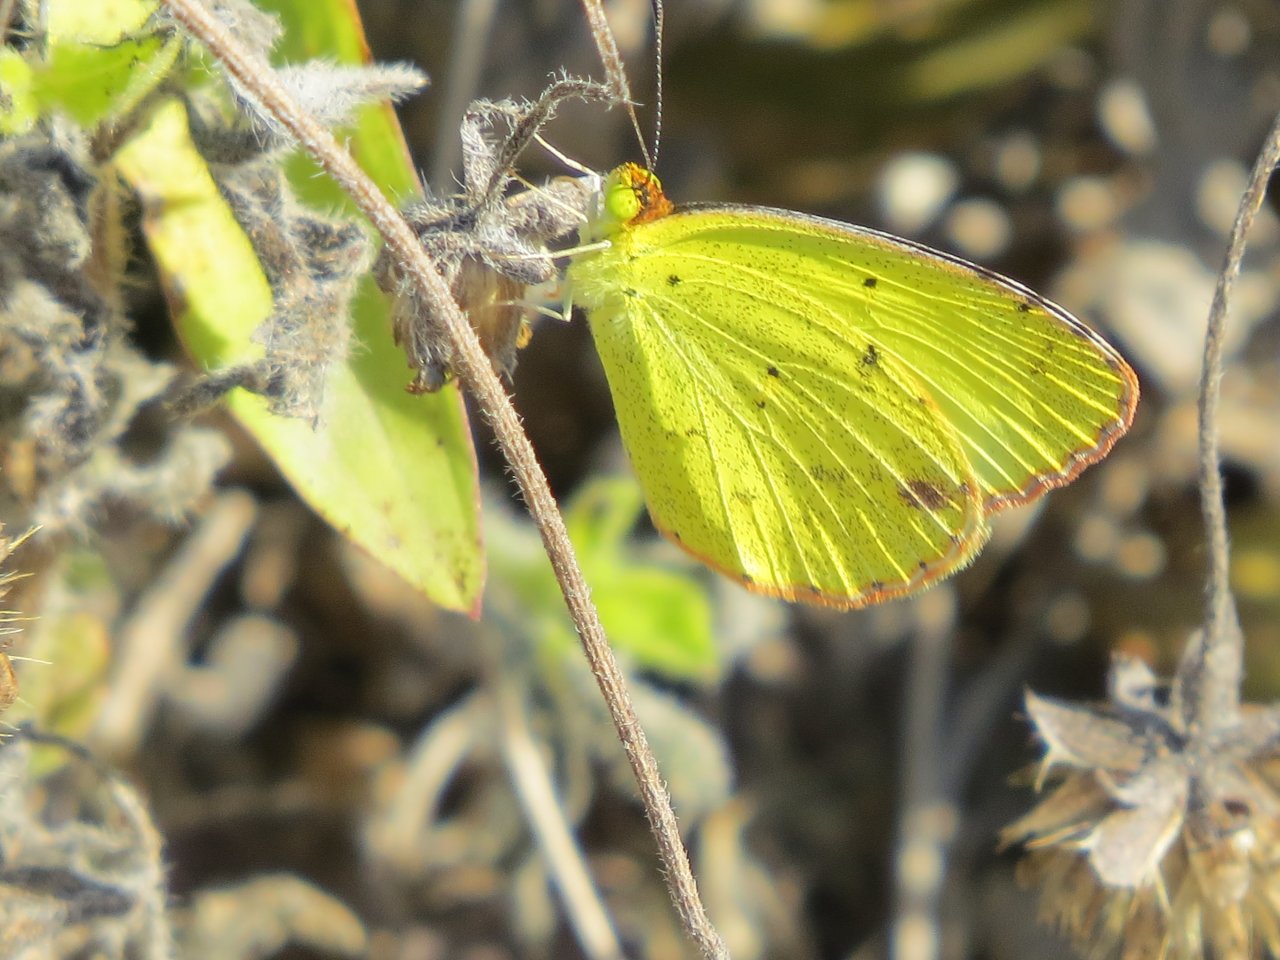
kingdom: Animalia
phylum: Arthropoda
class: Insecta
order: Lepidoptera
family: Pieridae
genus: Pyrisitia
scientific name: Pyrisitia lisa
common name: Little Yellow
